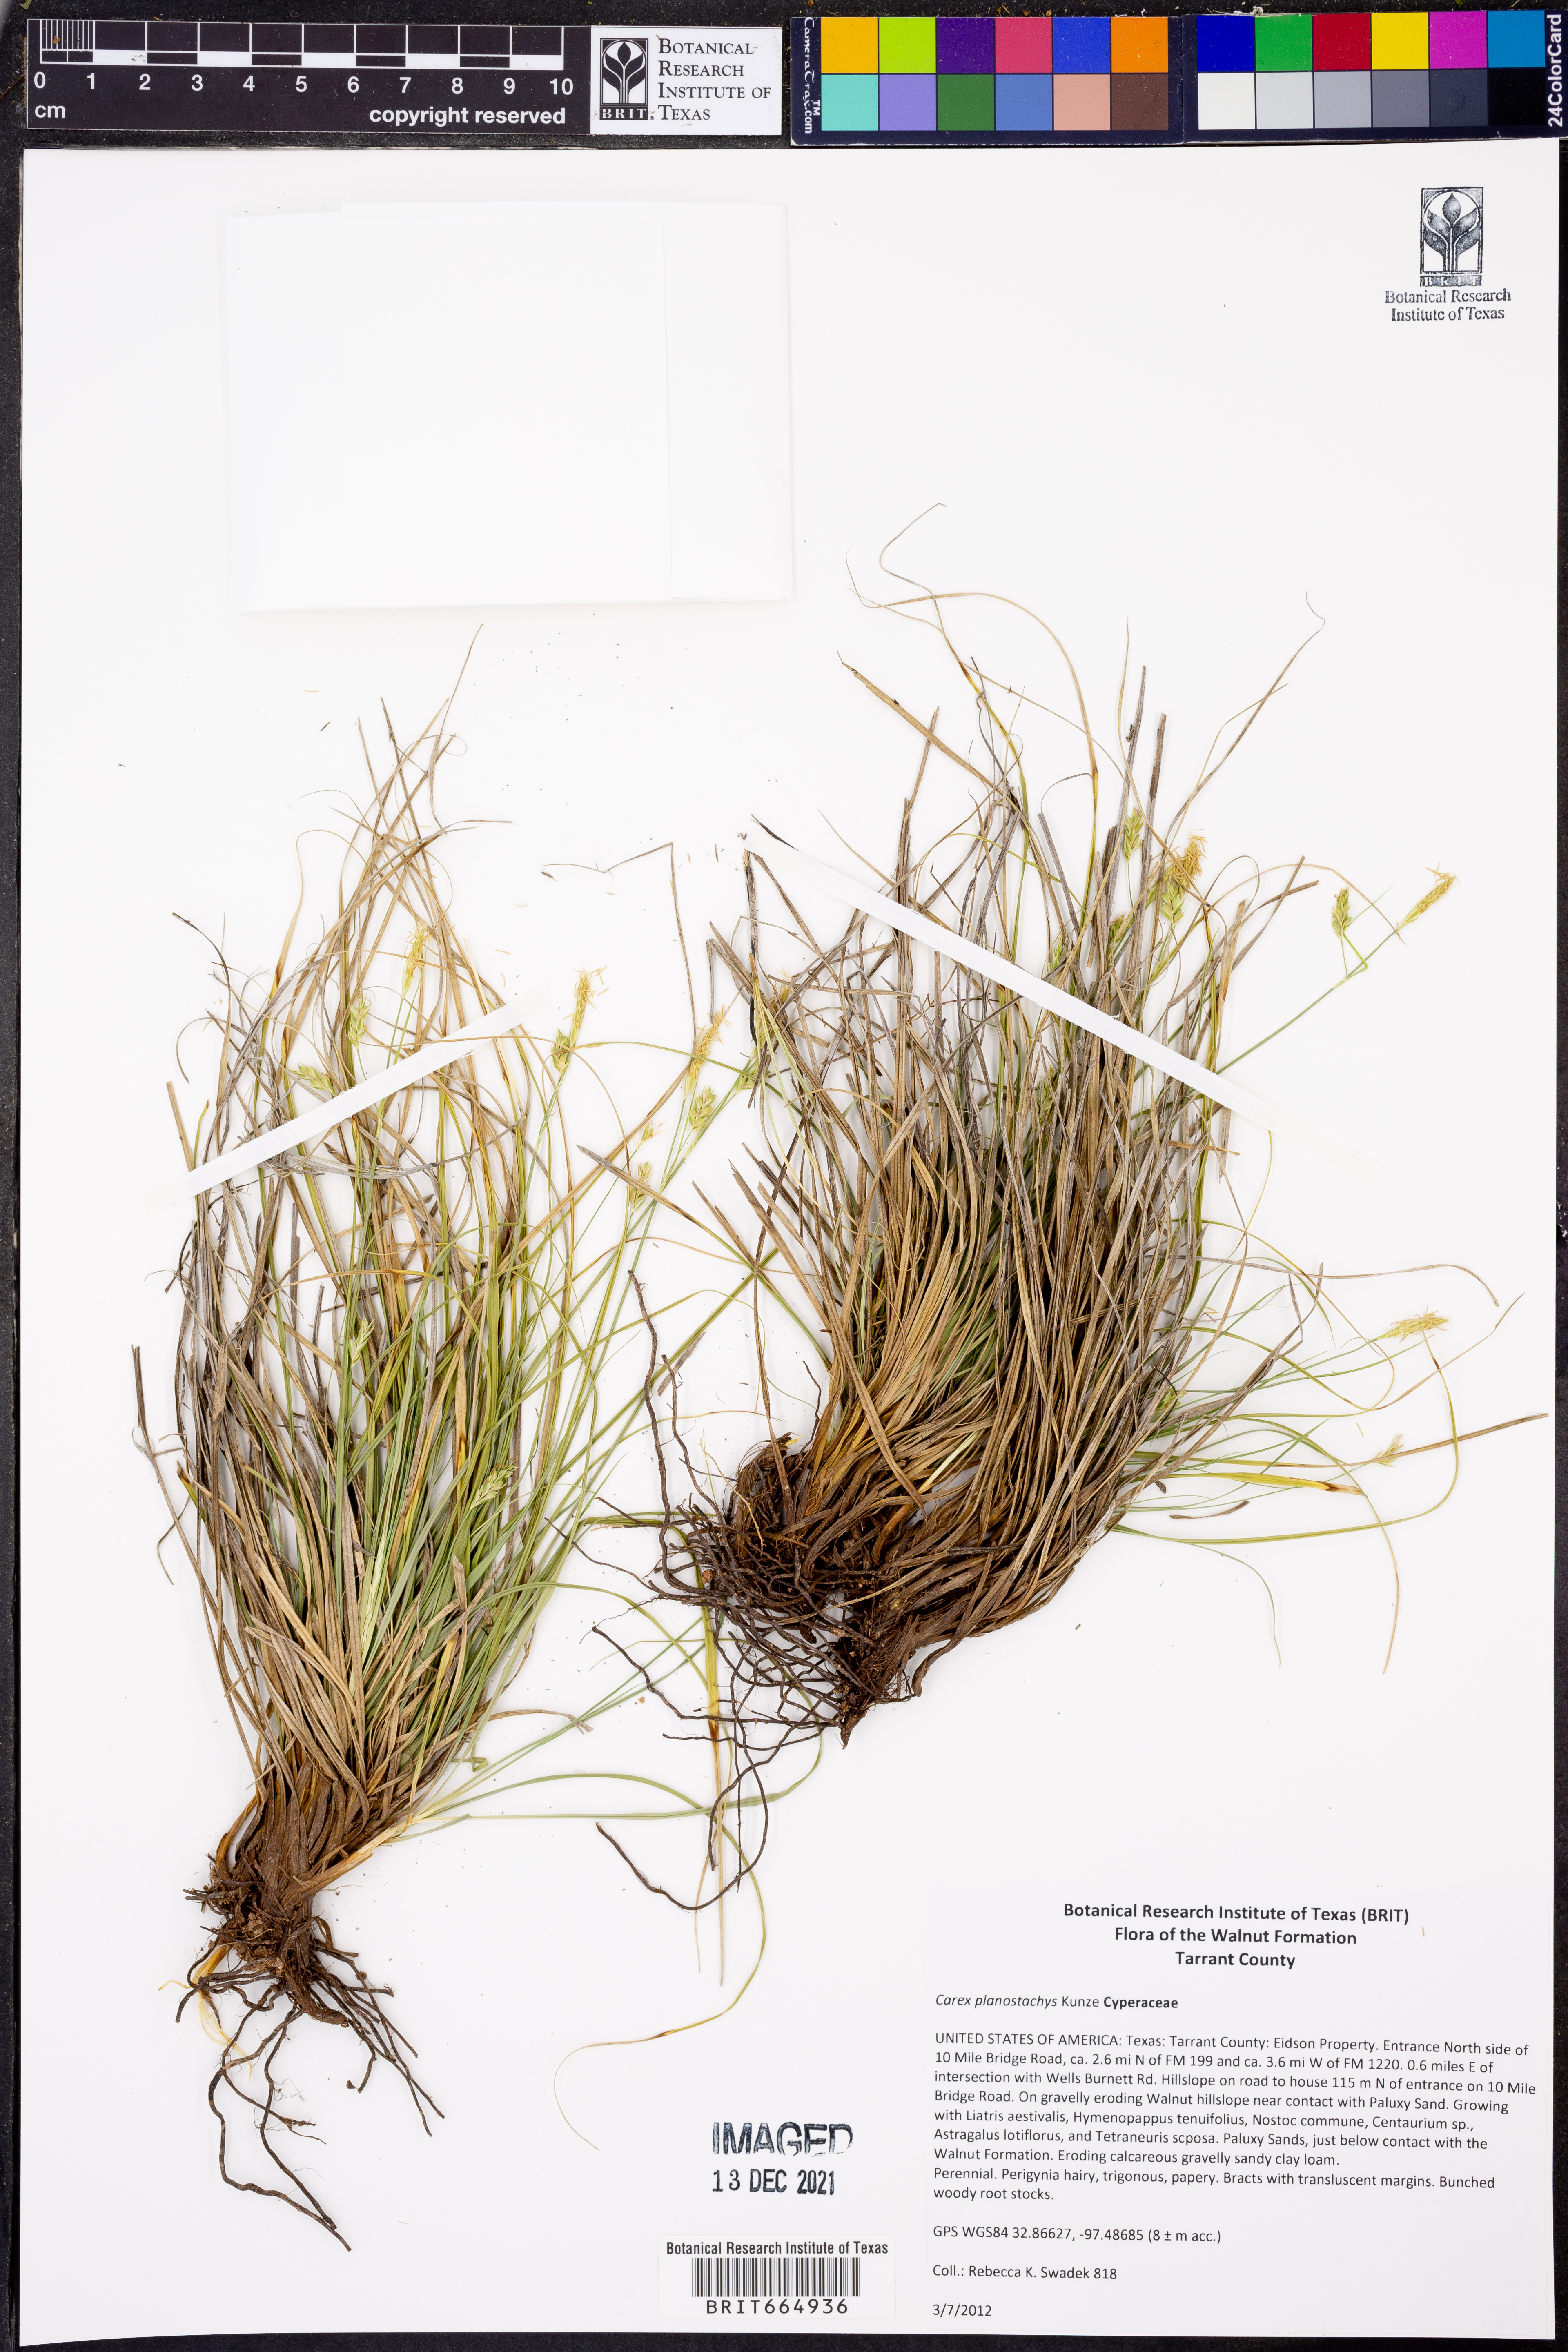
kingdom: Plantae
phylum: Tracheophyta
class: Liliopsida
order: Poales
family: Cyperaceae
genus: Carex
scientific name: Carex planostachys
